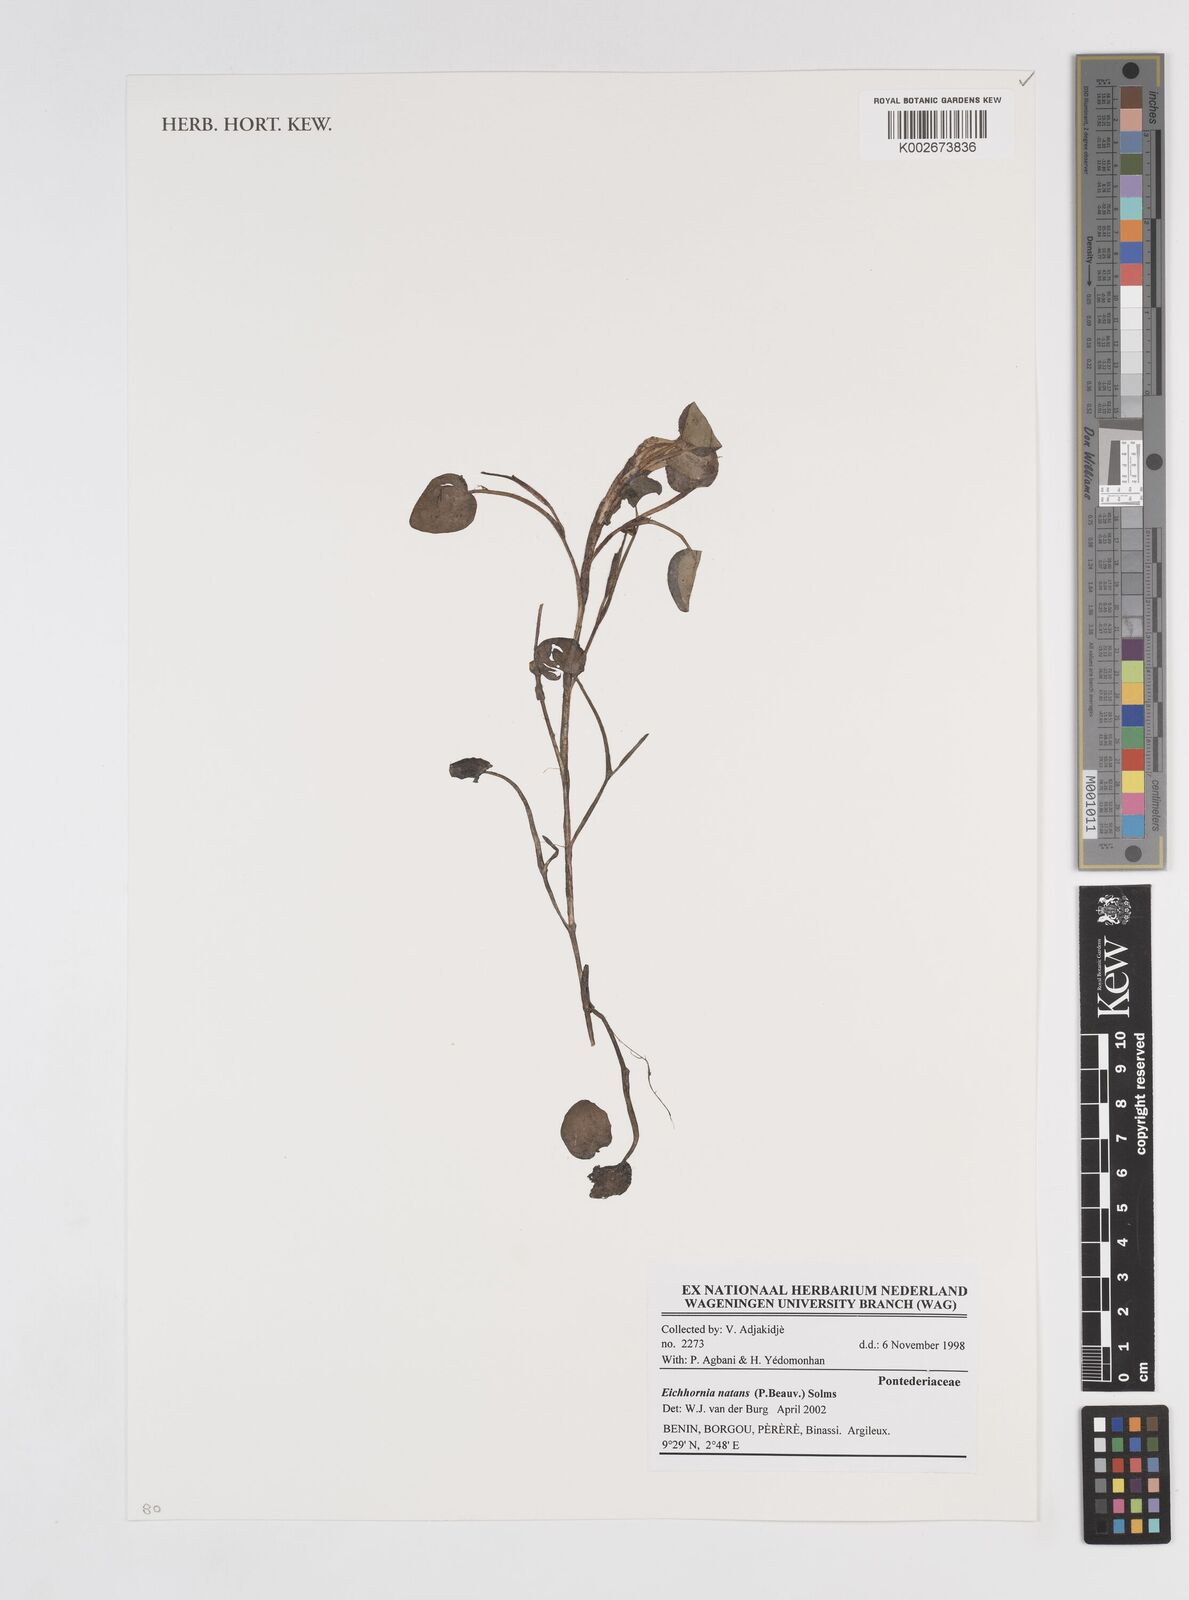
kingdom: Plantae
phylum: Tracheophyta
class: Liliopsida
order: Commelinales
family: Pontederiaceae
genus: Pontederia
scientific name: Pontederia natans
